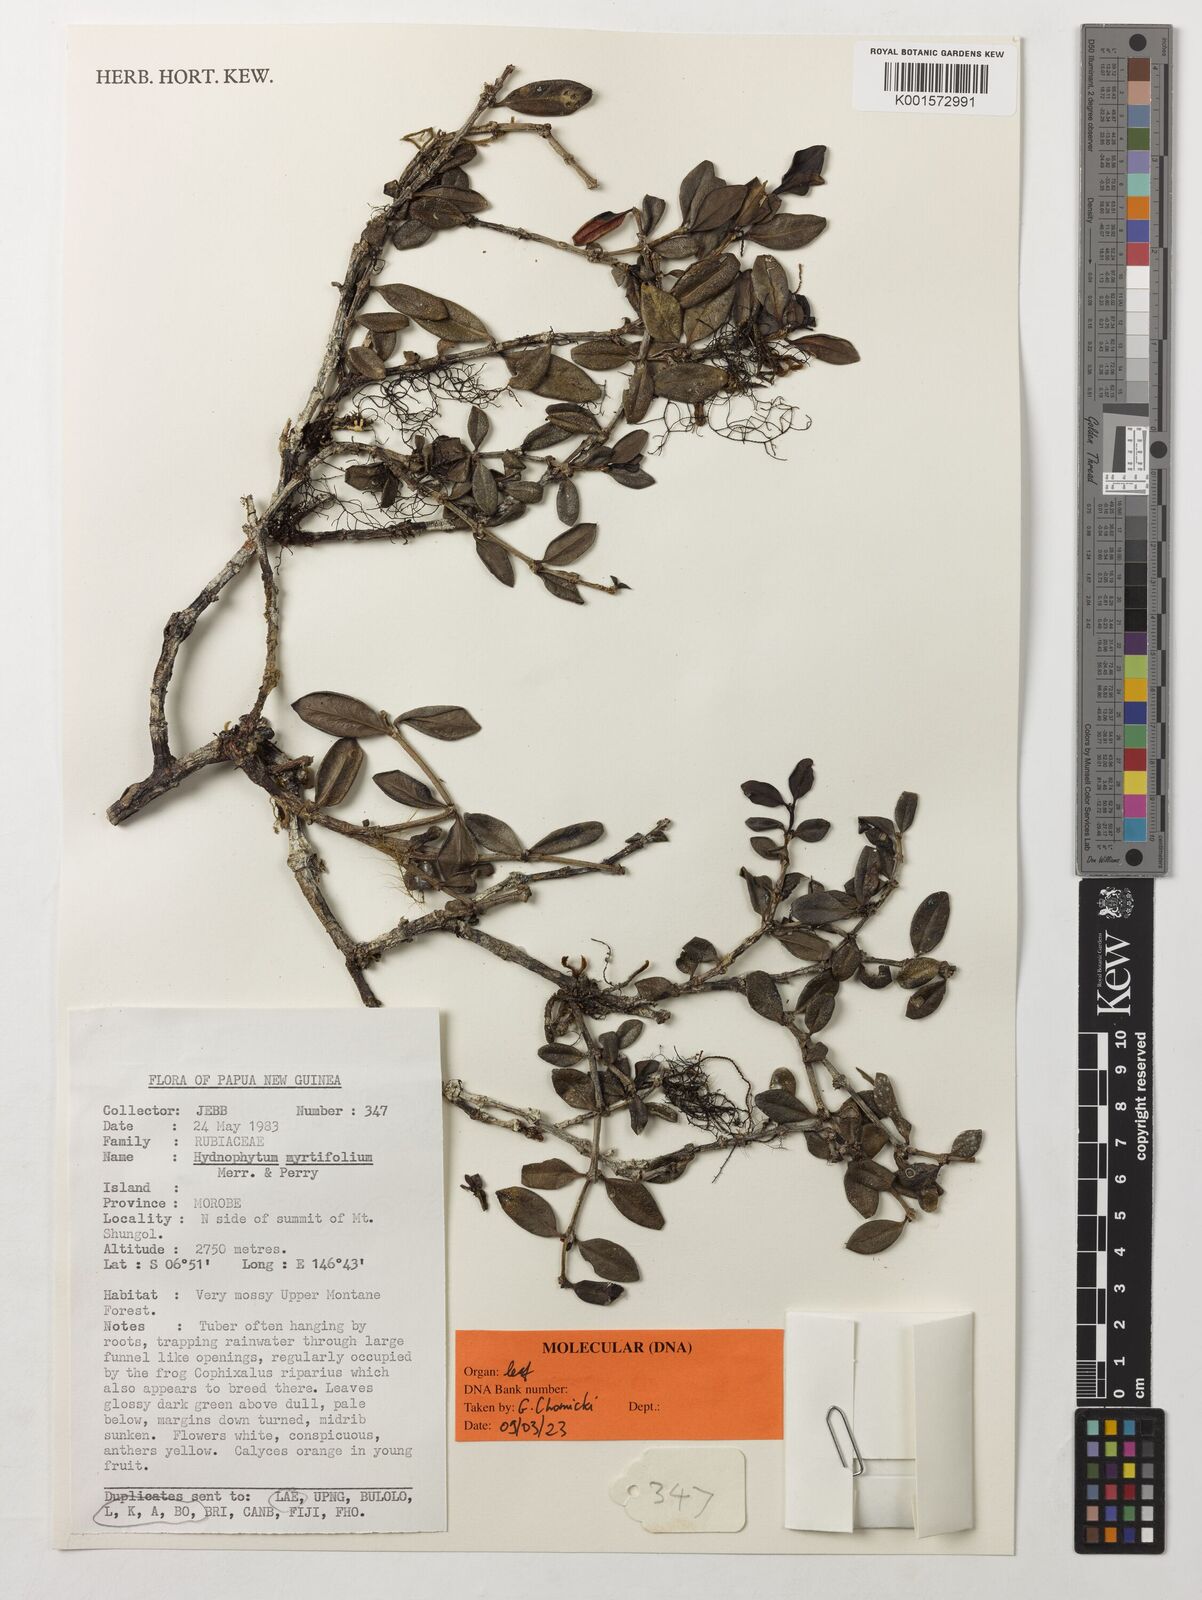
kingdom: Plantae
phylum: Tracheophyta
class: Magnoliopsida
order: Gentianales
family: Rubiaceae
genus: Hydnophytum
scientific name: Hydnophytum myrtifolium
